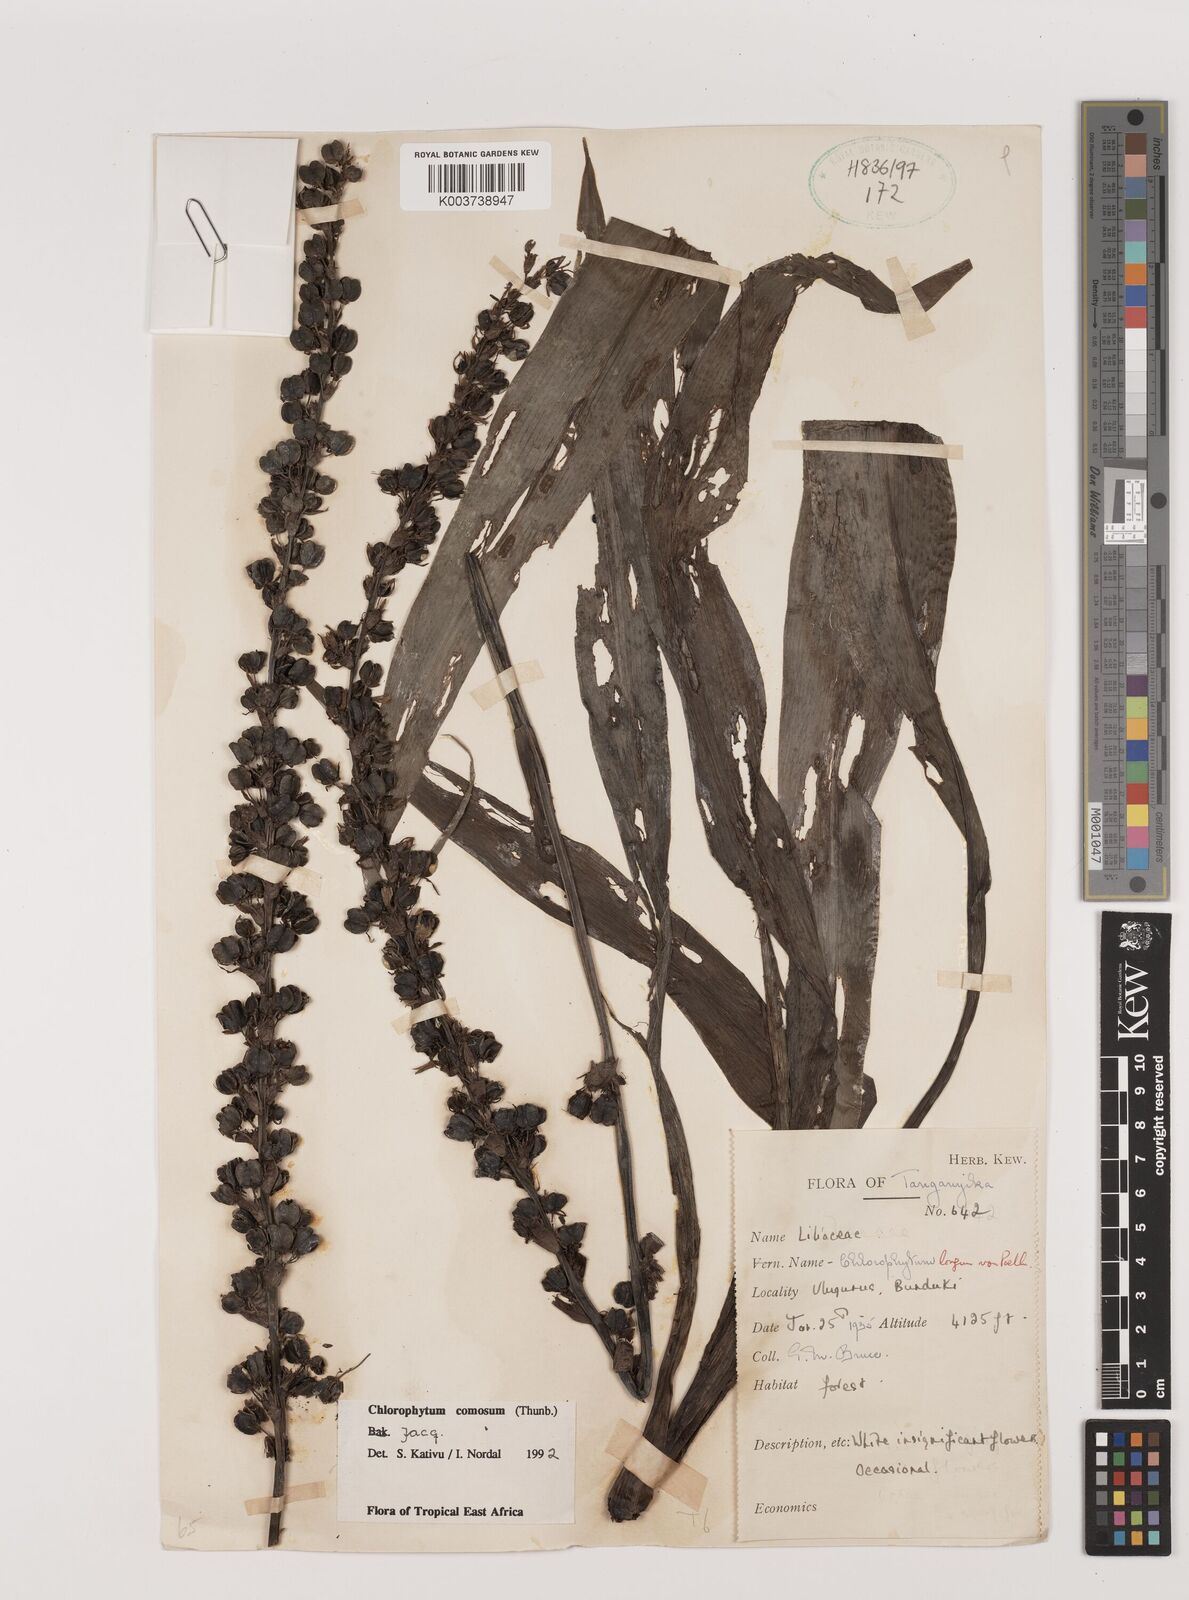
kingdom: Plantae
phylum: Tracheophyta
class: Liliopsida
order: Asparagales
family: Asparagaceae
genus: Chlorophytum
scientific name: Chlorophytum comosum
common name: Spider plant
